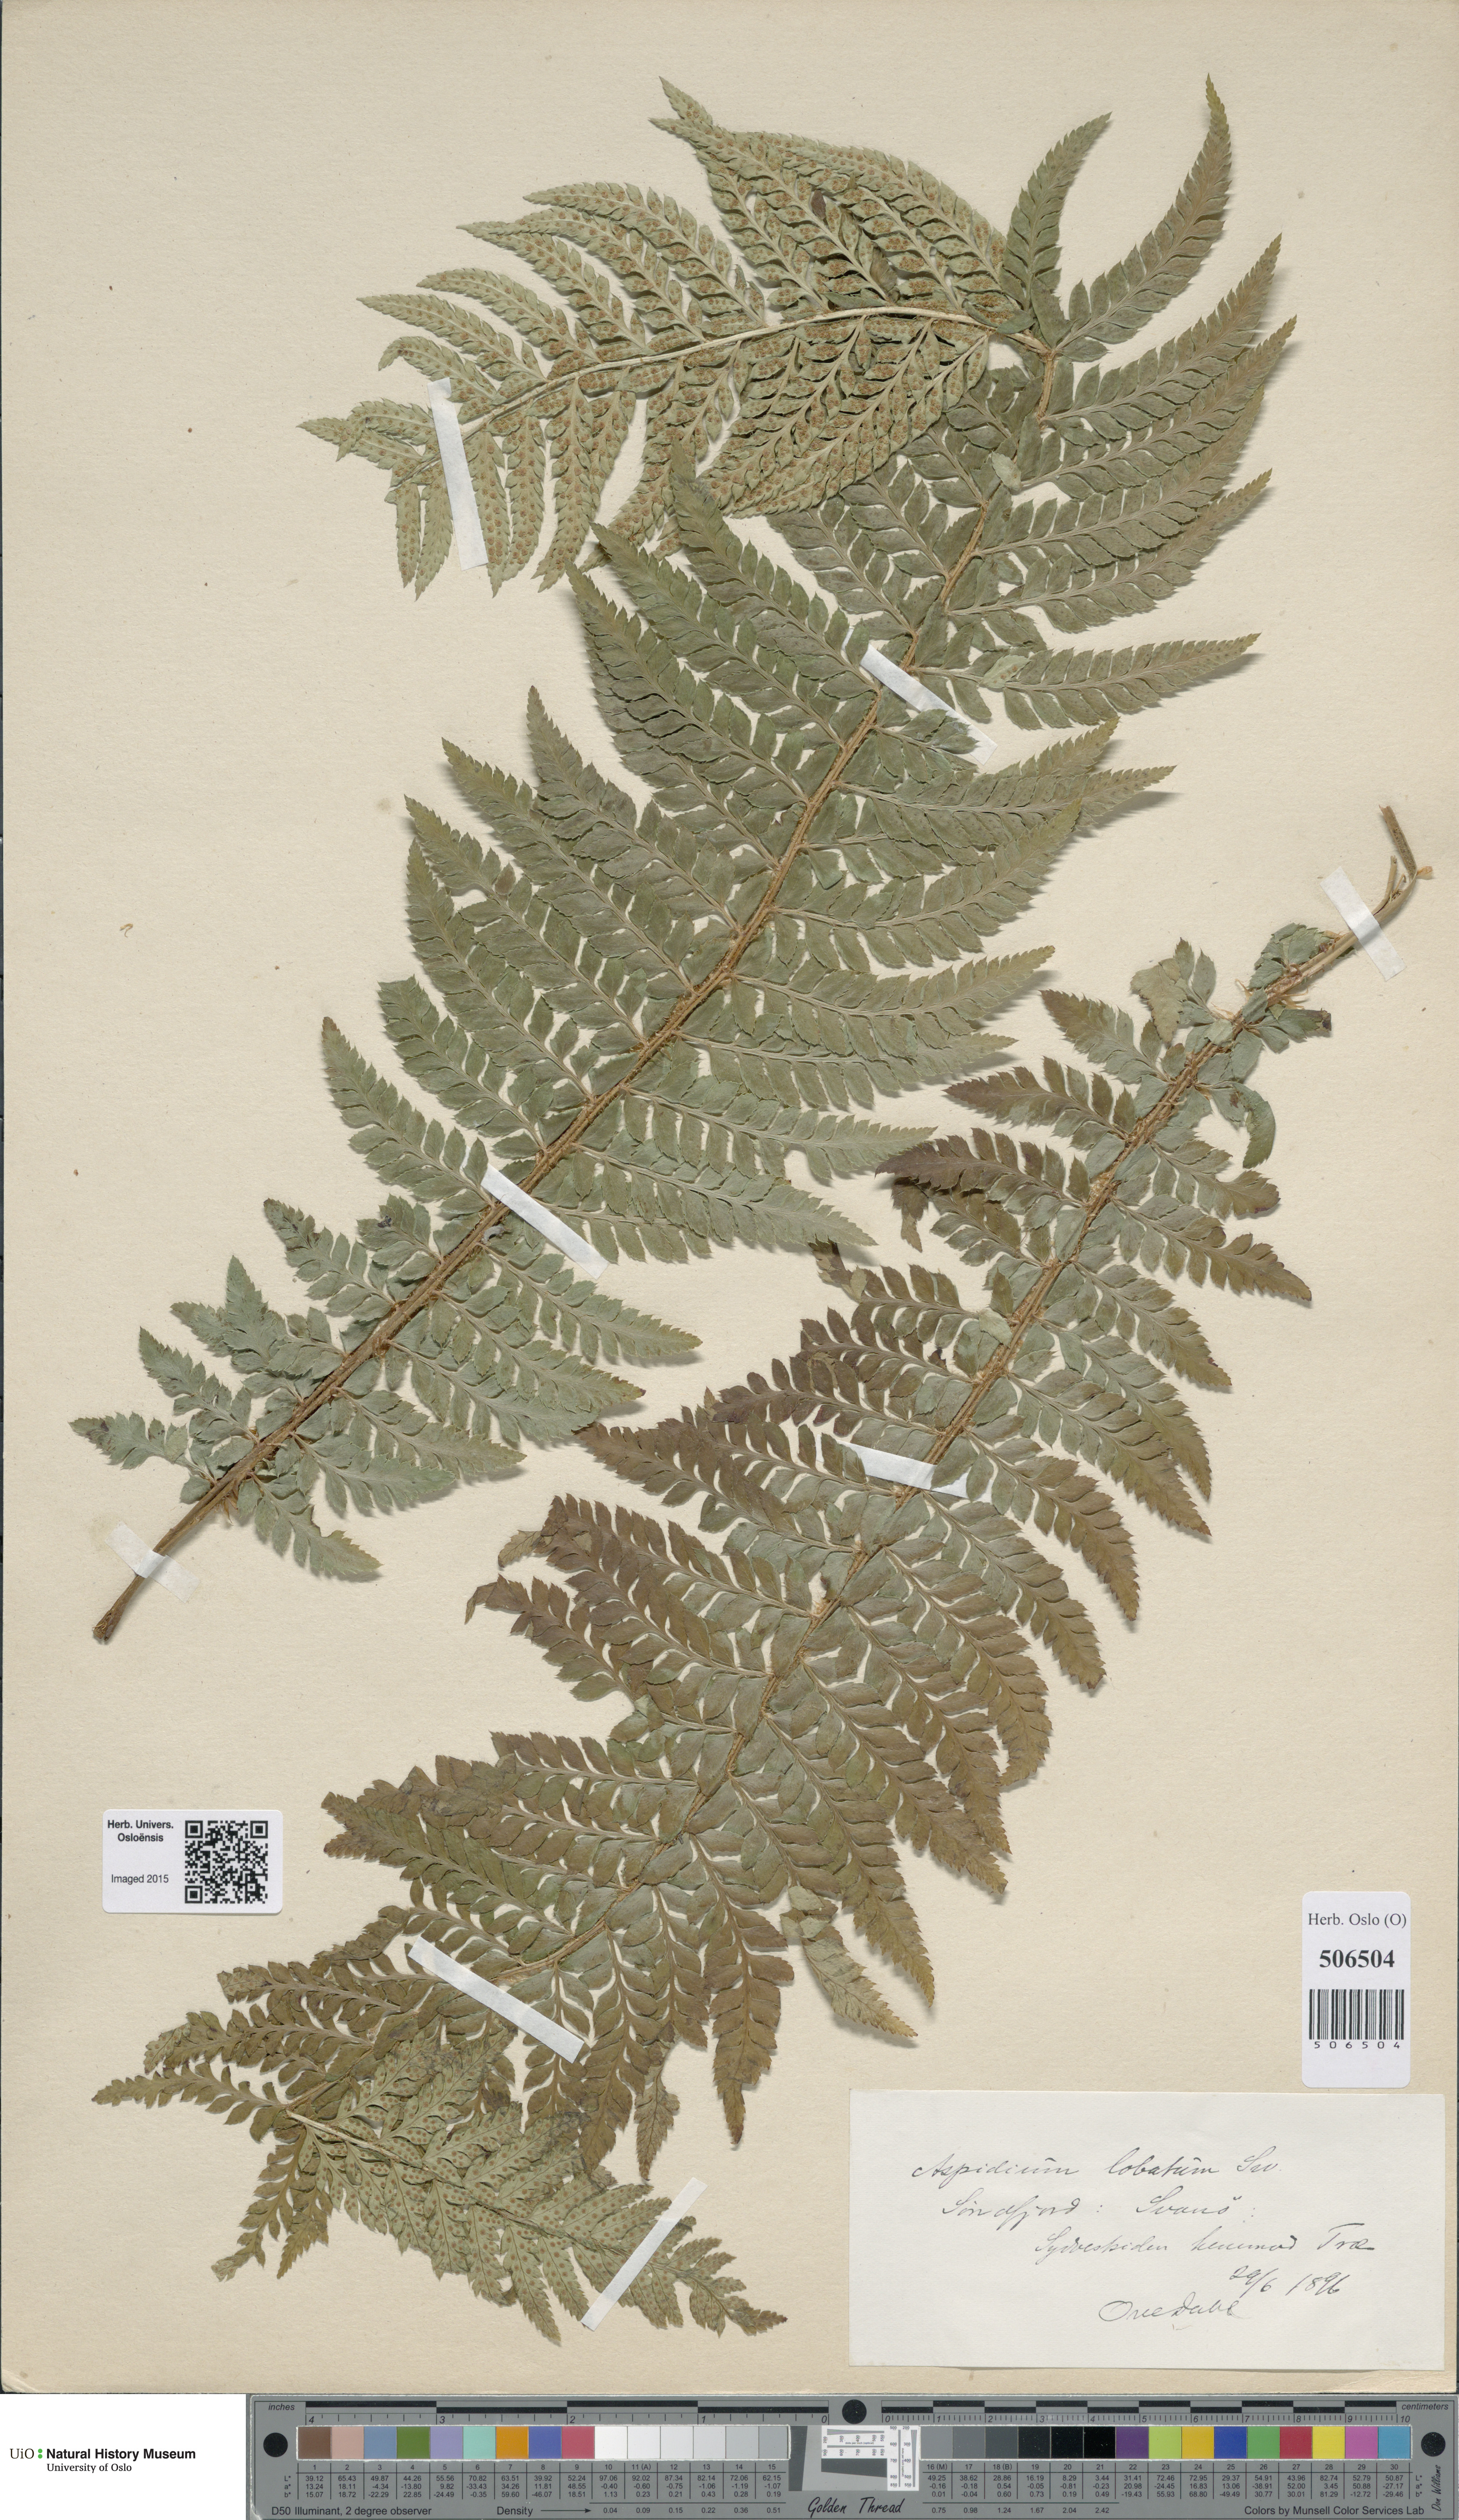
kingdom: Plantae
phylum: Tracheophyta
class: Polypodiopsida
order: Polypodiales
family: Dryopteridaceae
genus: Polystichum
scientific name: Polystichum aculeatum
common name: Hard shield-fern
